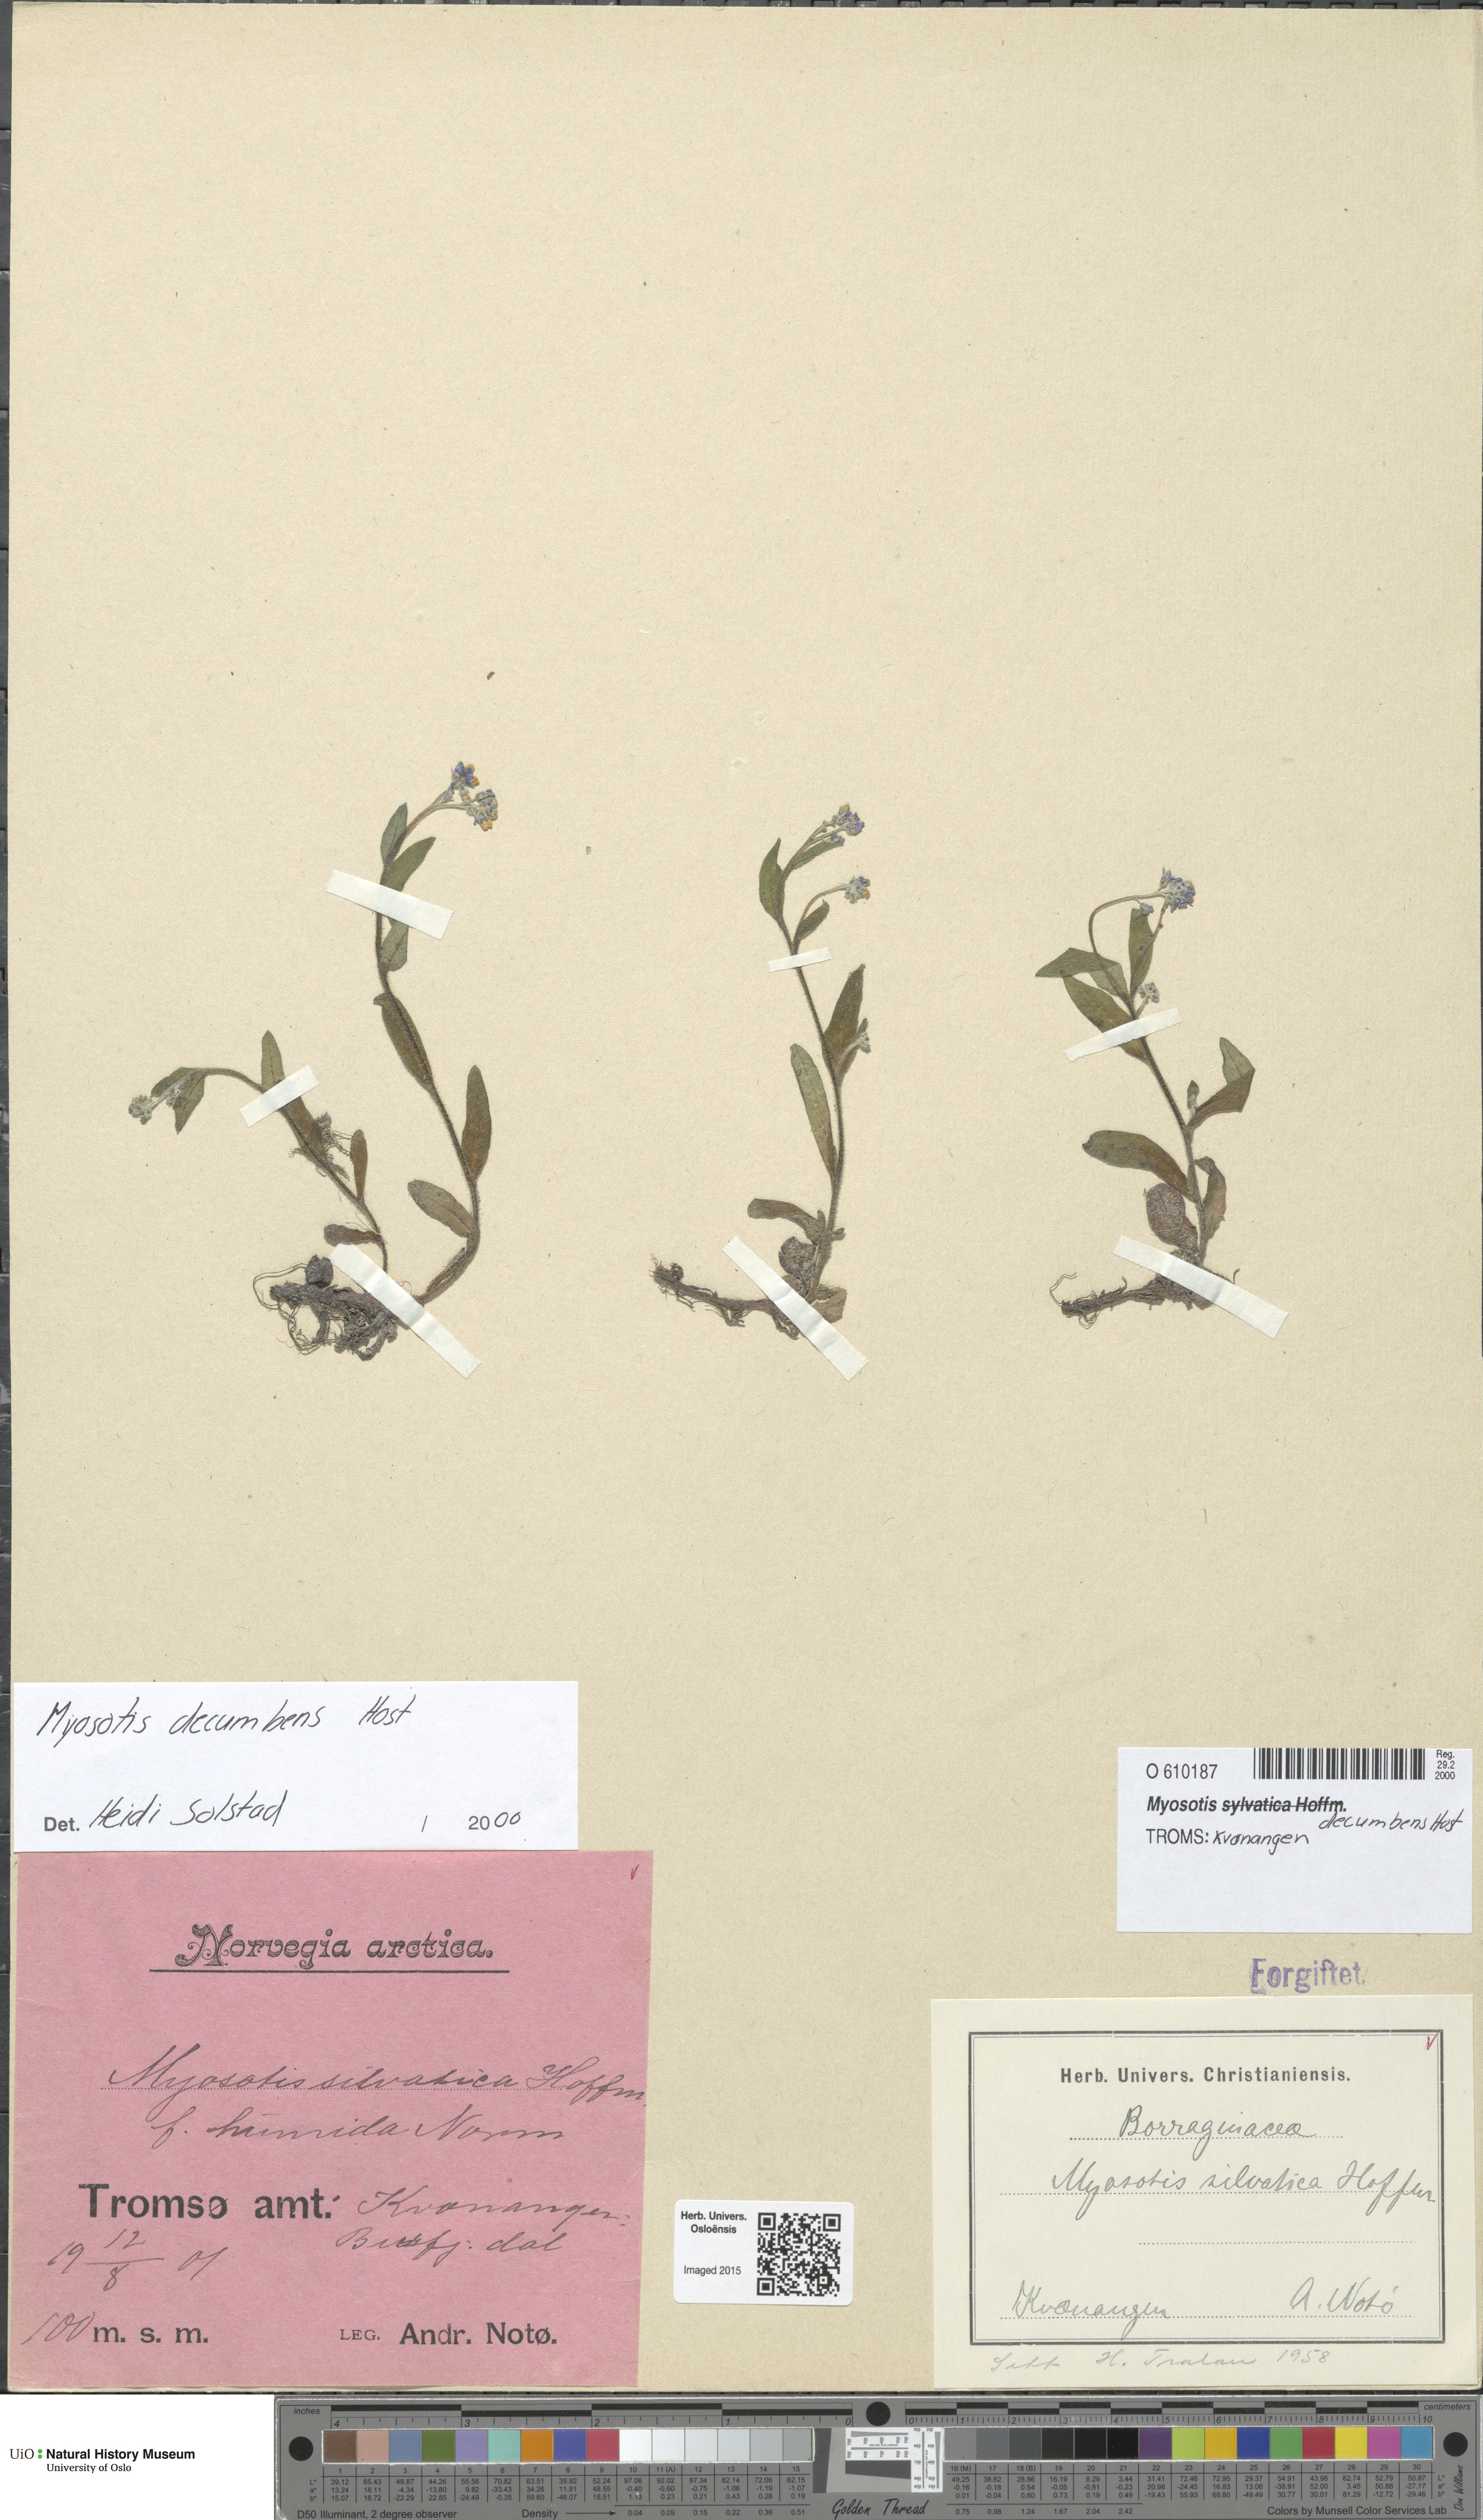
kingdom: Plantae
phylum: Tracheophyta
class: Magnoliopsida
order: Boraginales
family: Boraginaceae
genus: Myosotis
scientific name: Myosotis decumbens
